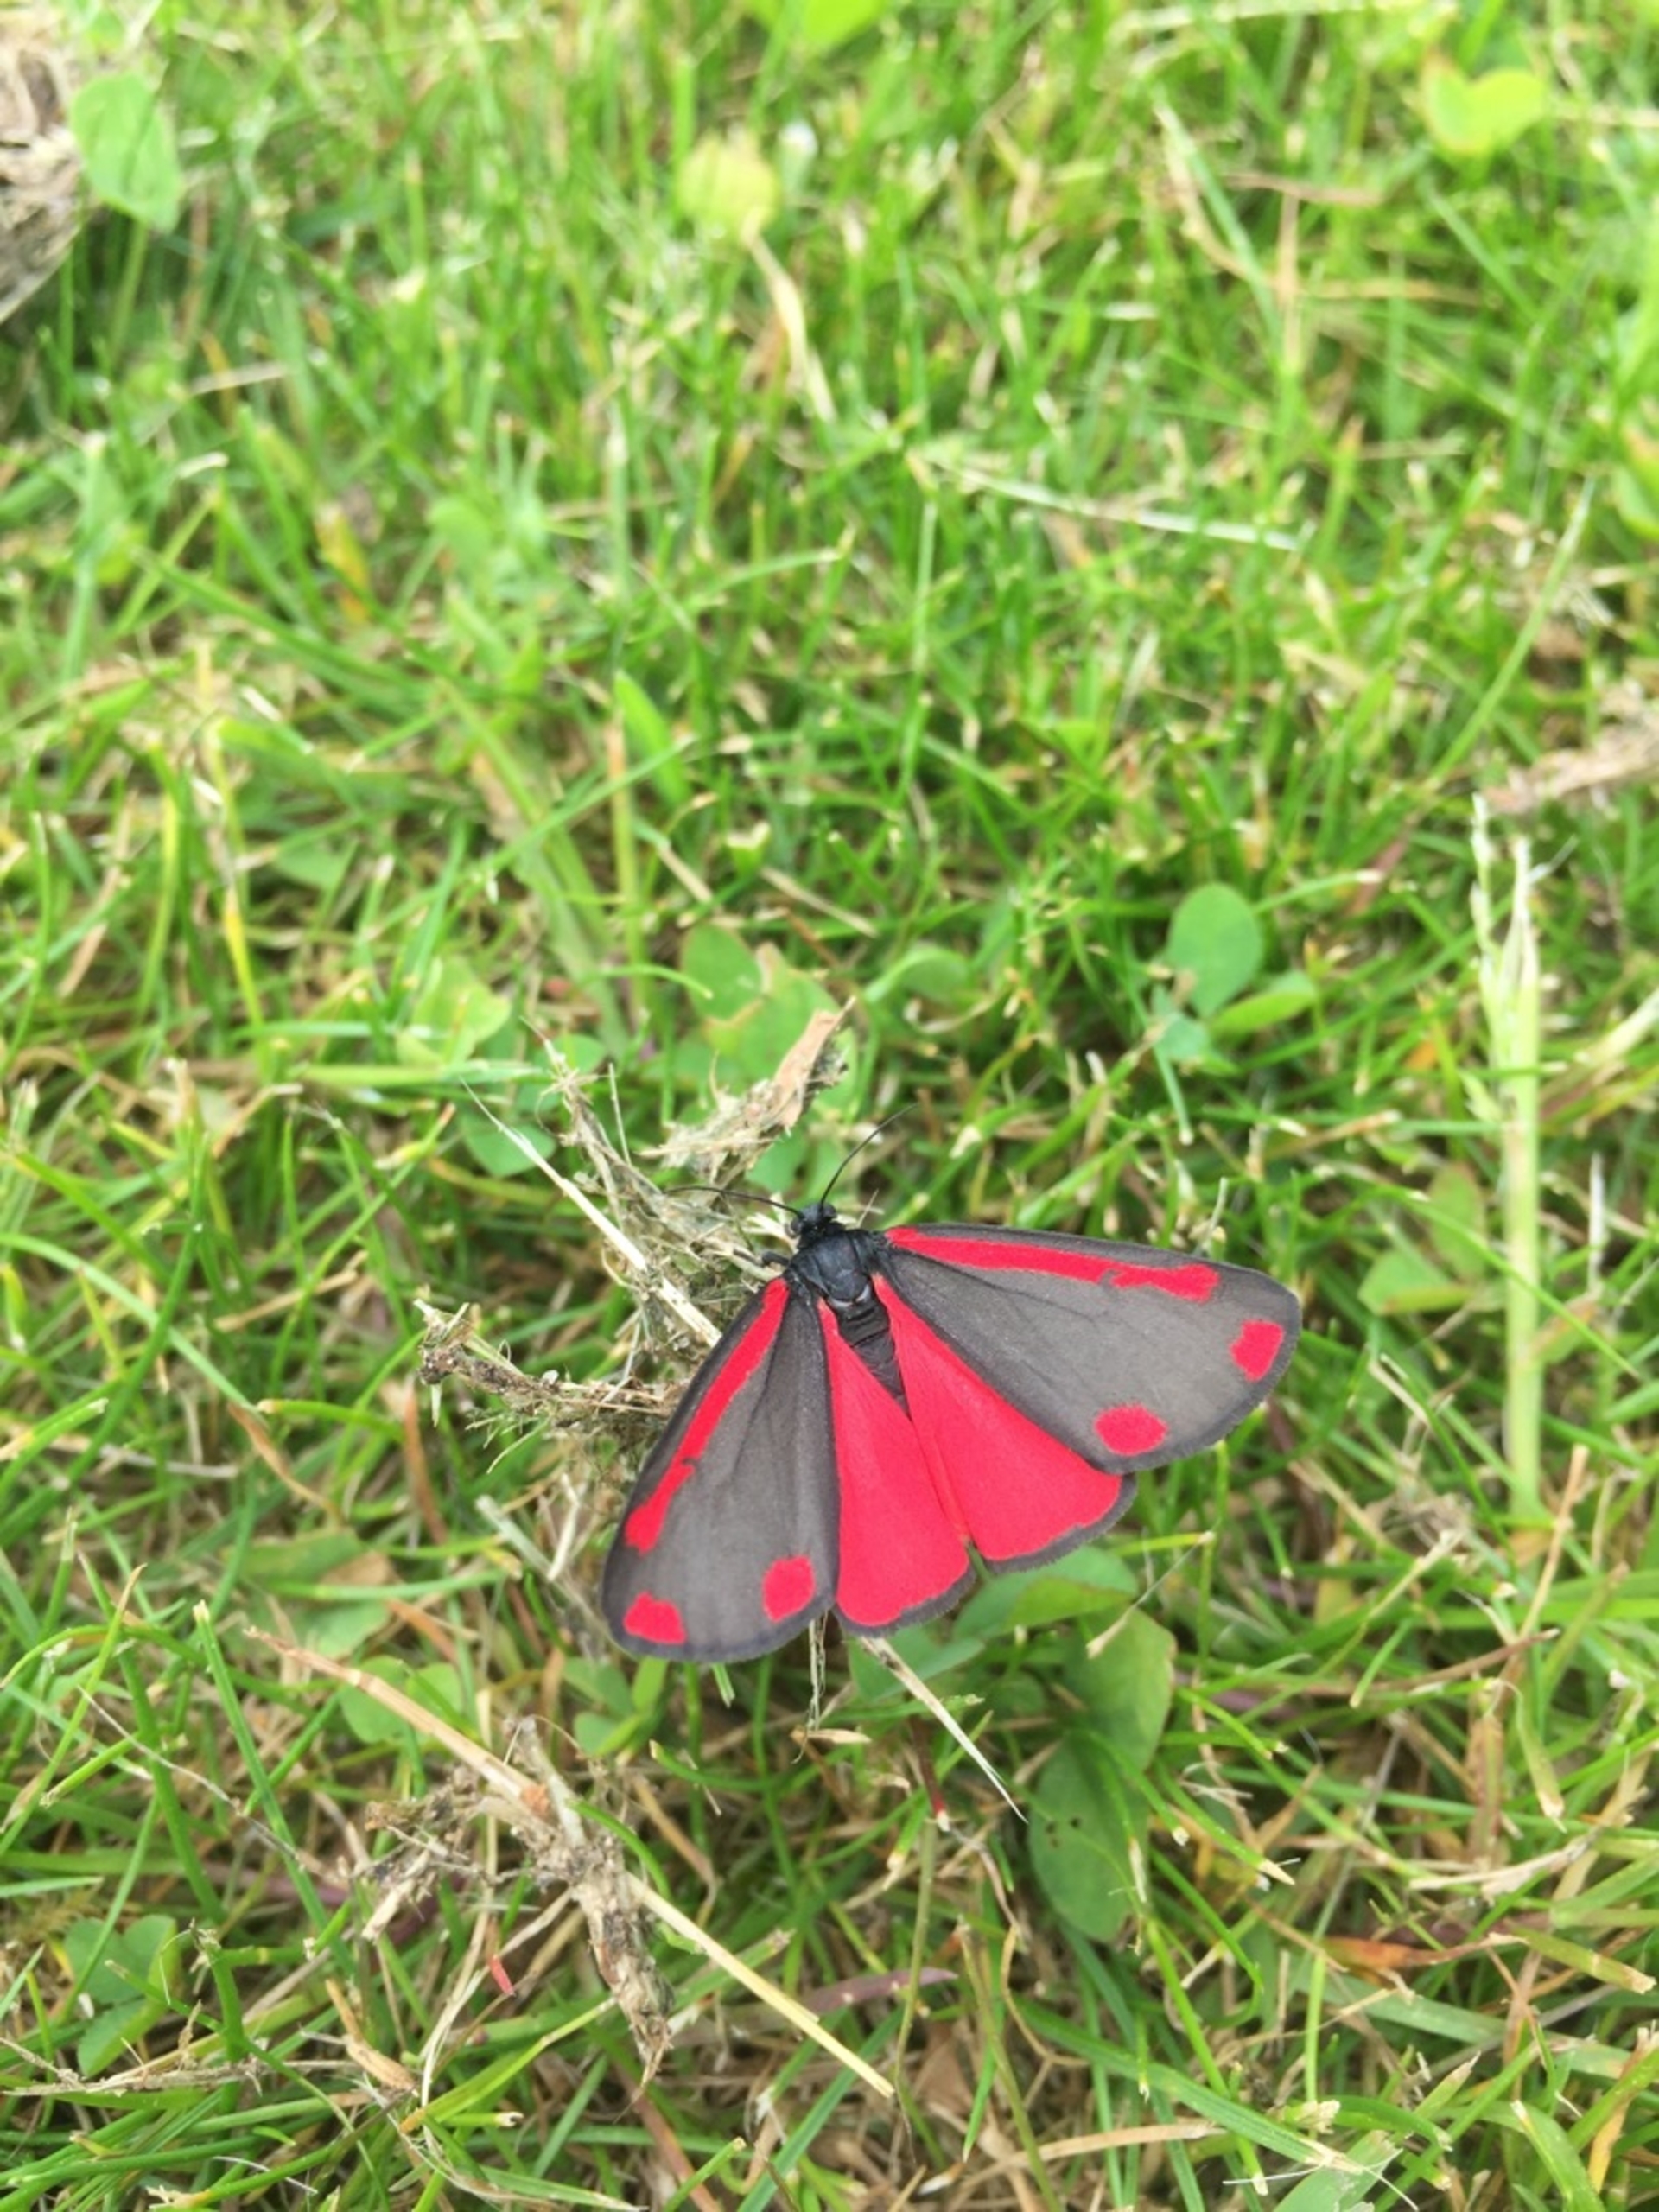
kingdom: Animalia
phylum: Arthropoda
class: Insecta
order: Lepidoptera
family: Erebidae
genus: Tyria
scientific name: Tyria jacobaeae
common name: Blodplet
